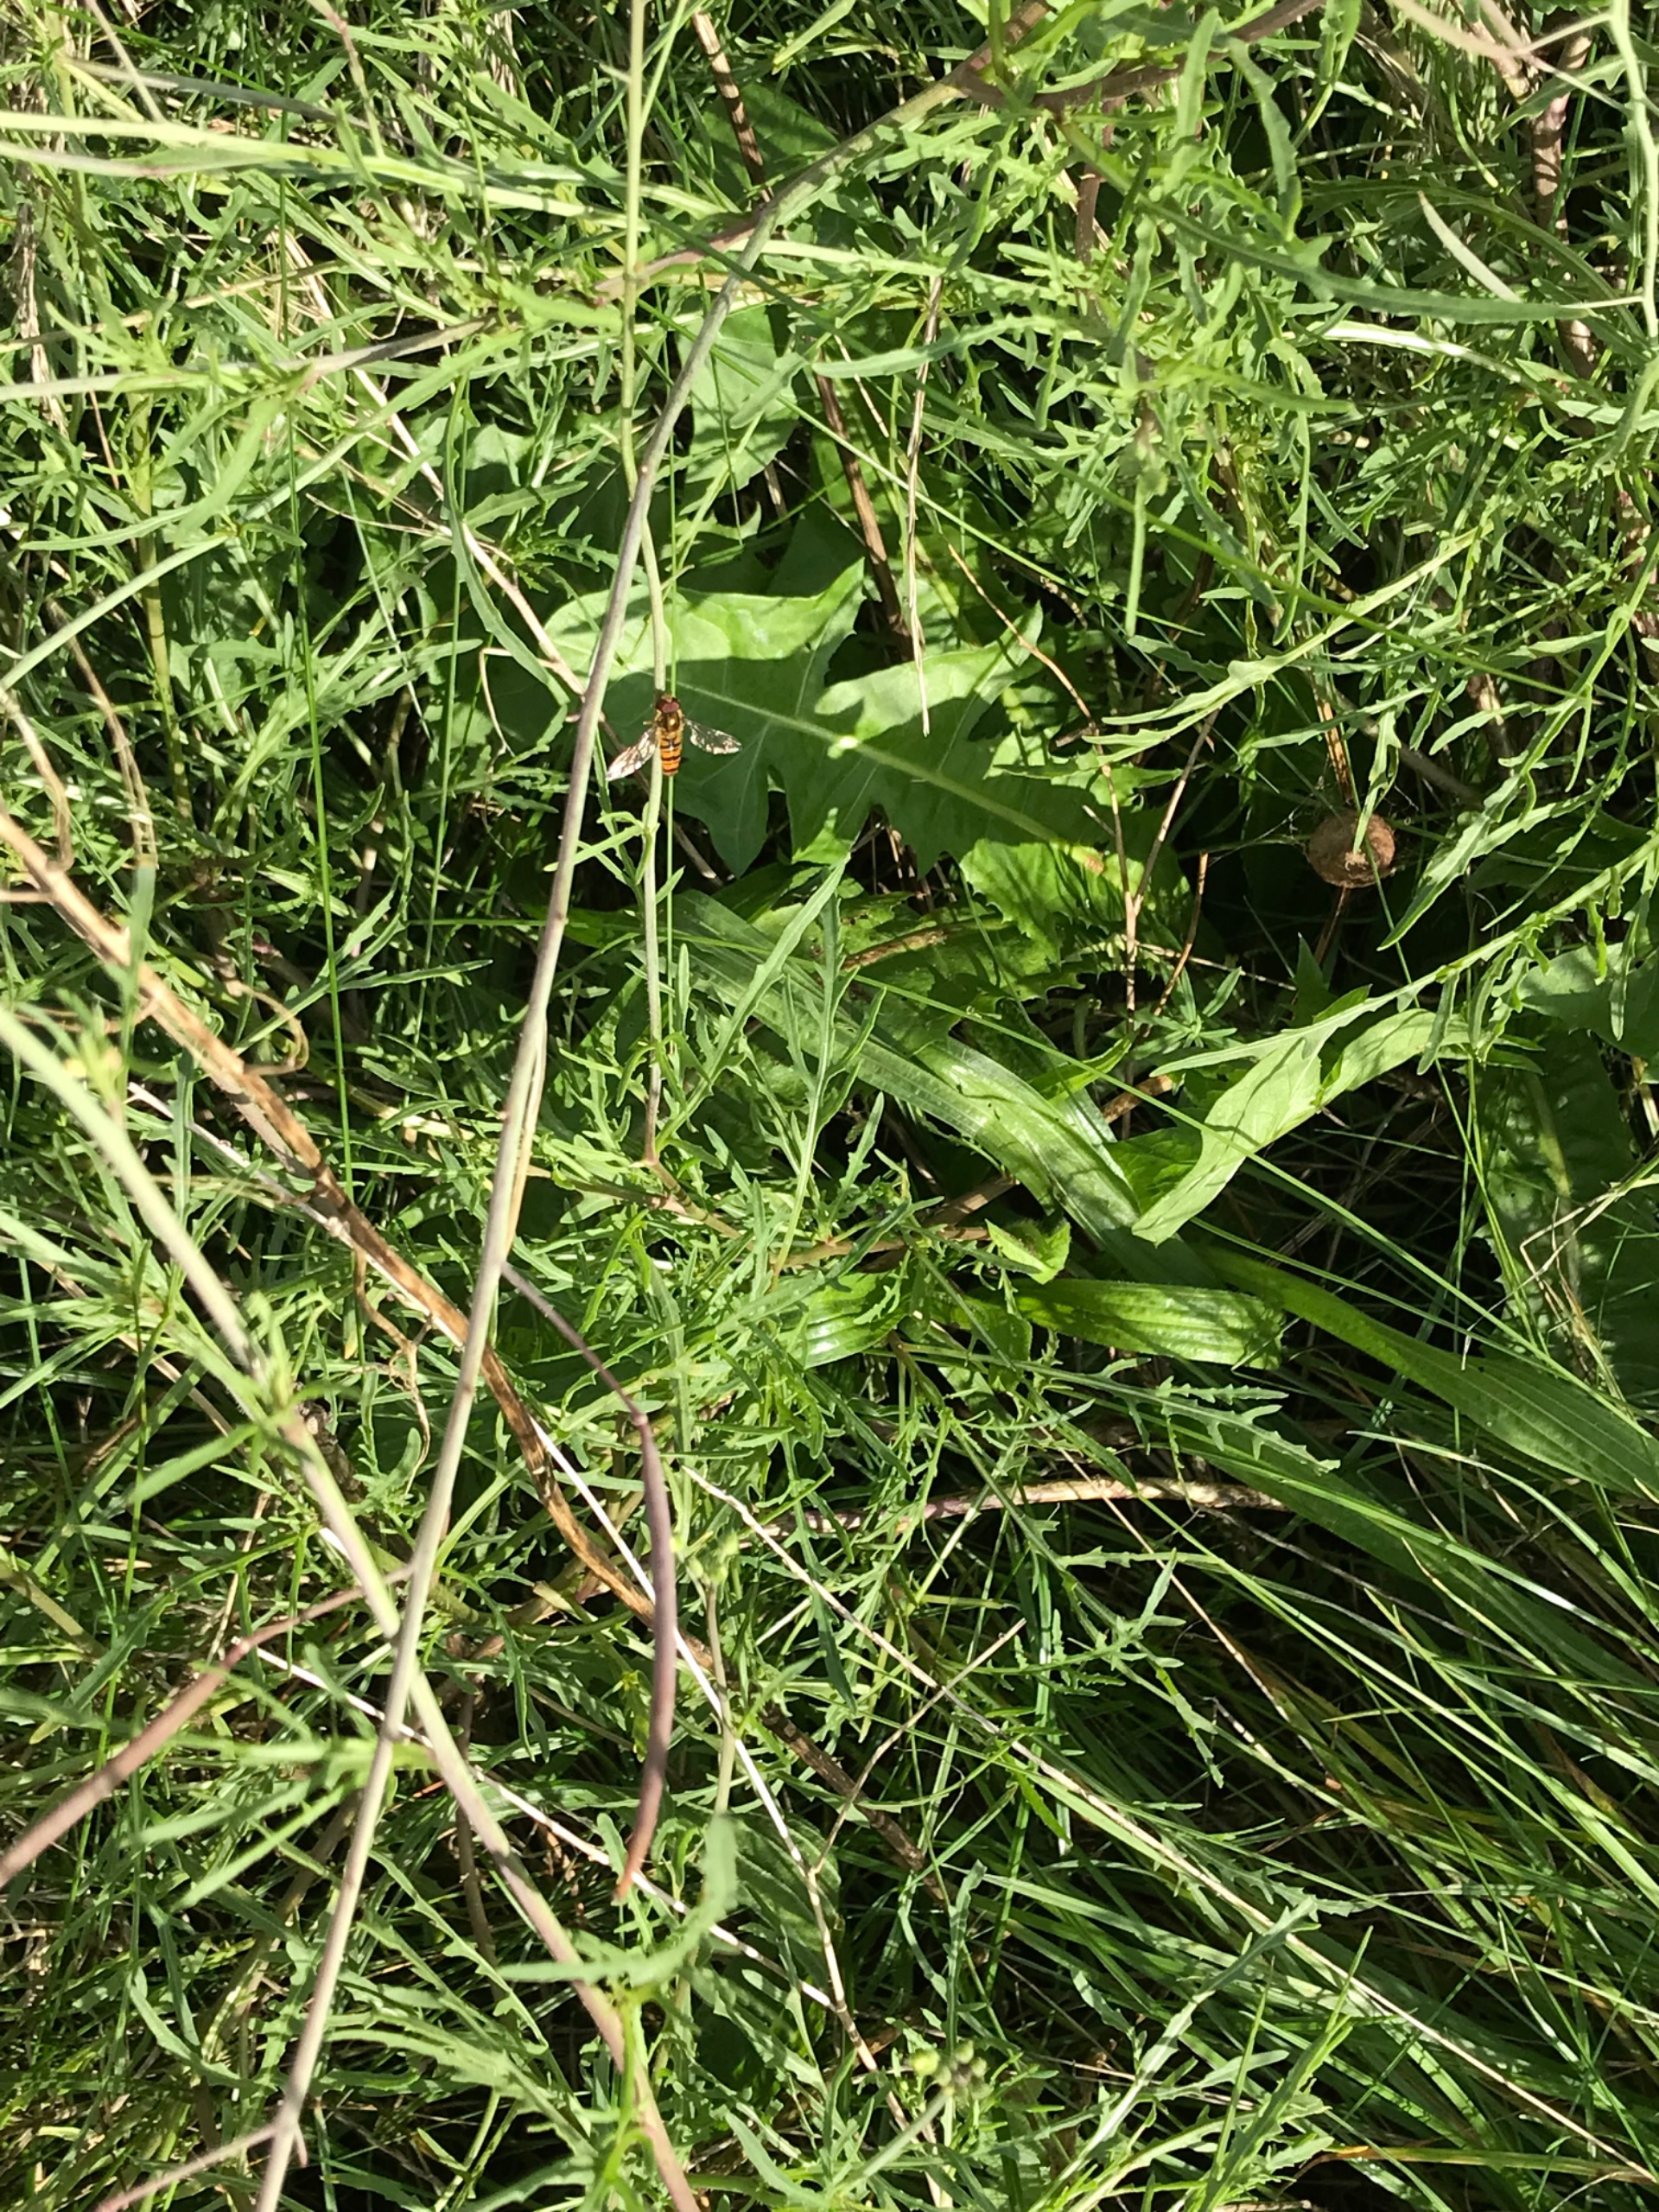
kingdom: Animalia
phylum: Arthropoda
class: Insecta
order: Diptera
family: Syrphidae
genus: Episyrphus
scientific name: Episyrphus balteatus
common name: Dobbeltbåndet svirreflue
